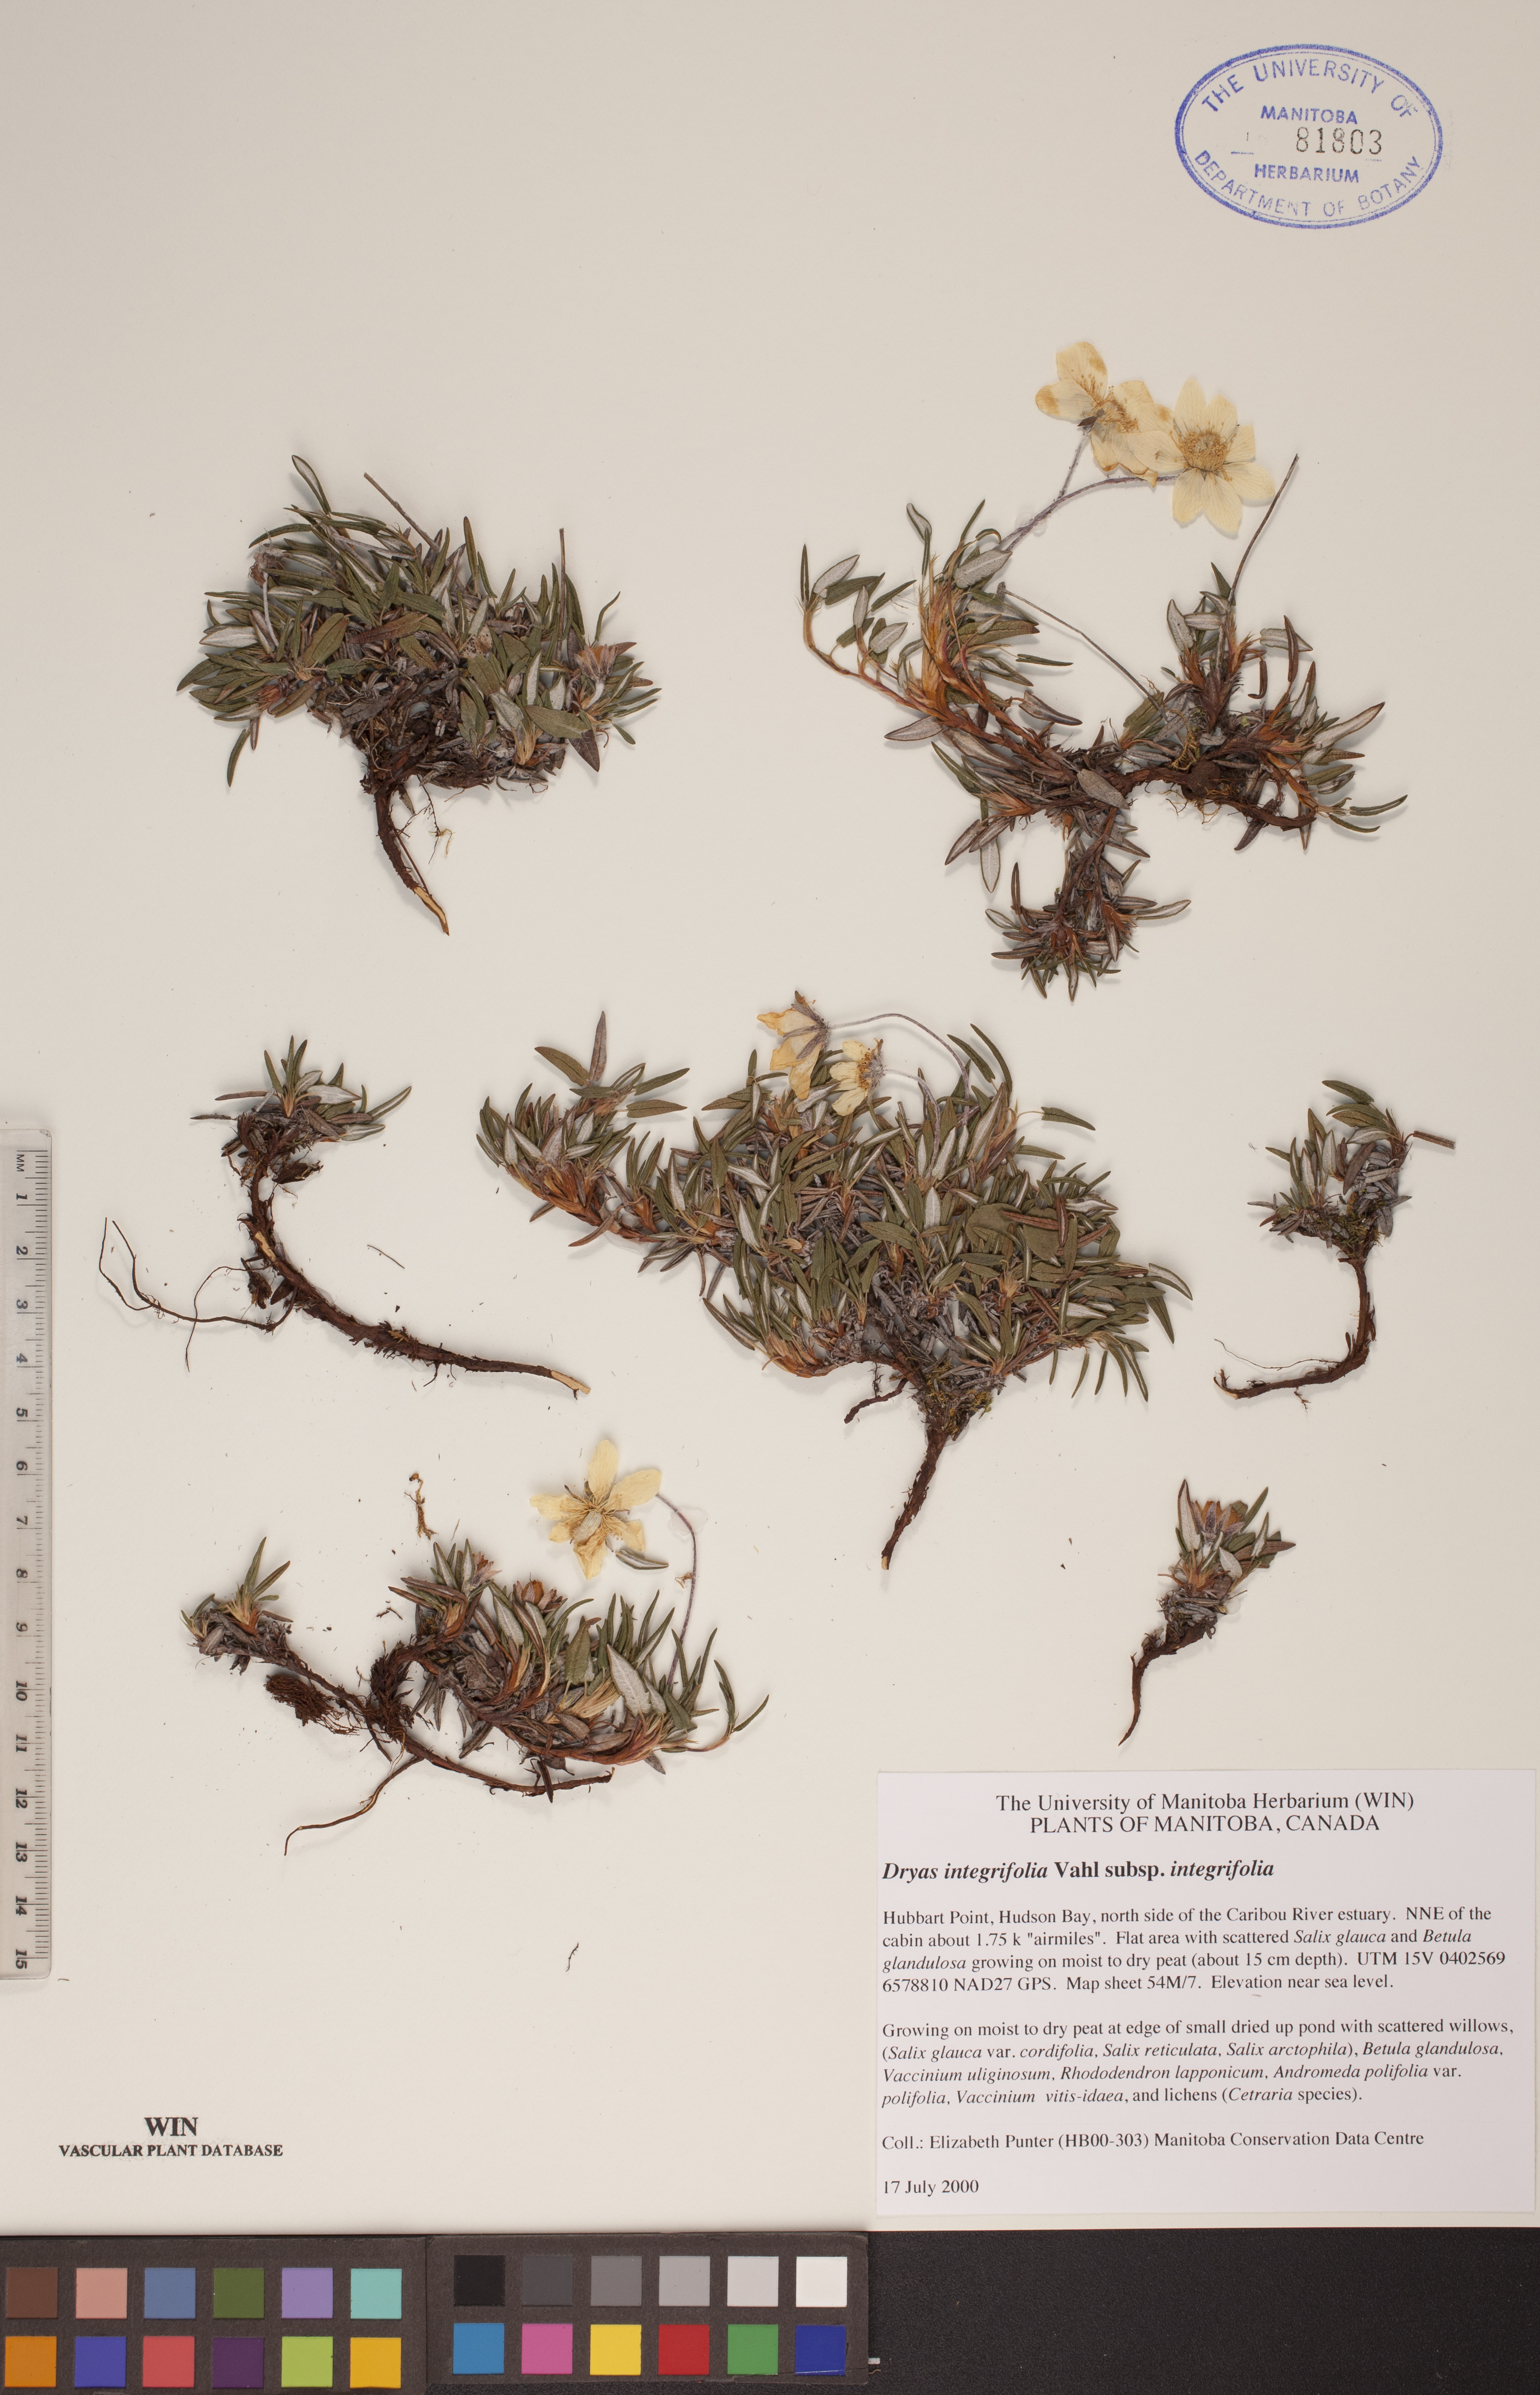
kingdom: Plantae
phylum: Tracheophyta
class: Magnoliopsida
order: Rosales
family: Rosaceae
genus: Dryas
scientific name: Dryas integrifolia
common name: Entire-leaved mountain avens
